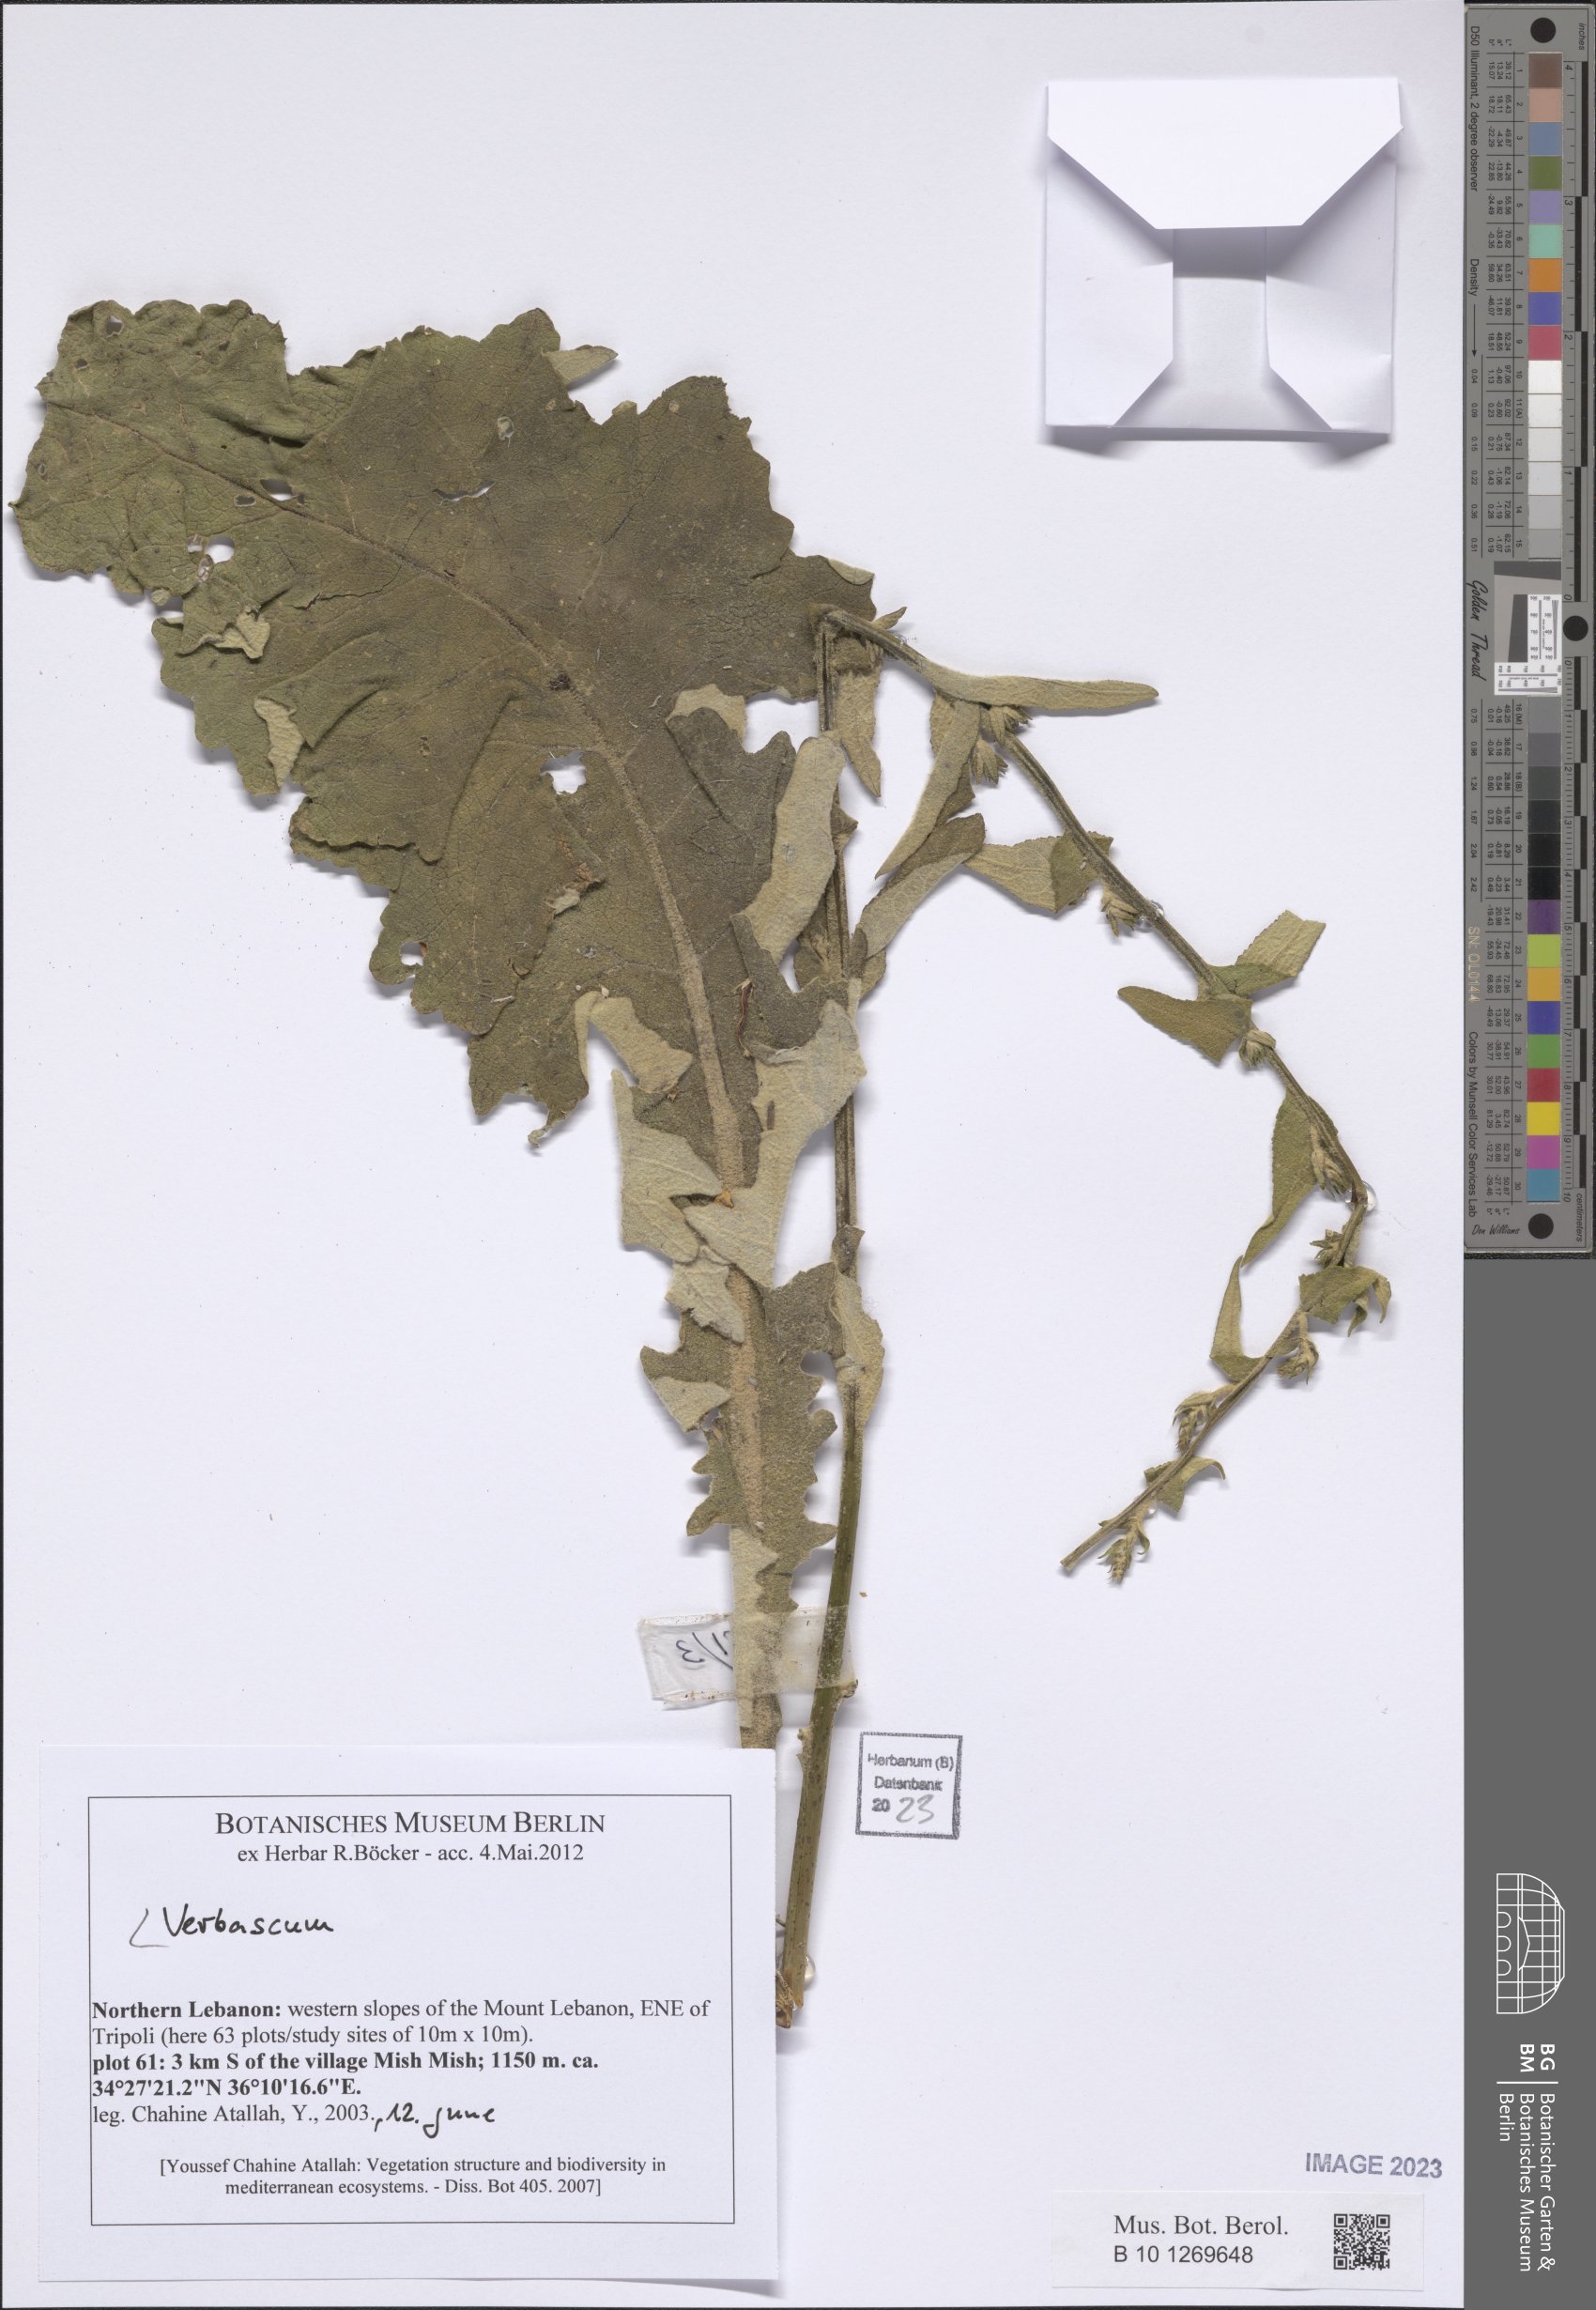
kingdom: Plantae
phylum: Tracheophyta
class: Magnoliopsida
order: Lamiales
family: Scrophulariaceae
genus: Verbascum
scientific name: Verbascum
